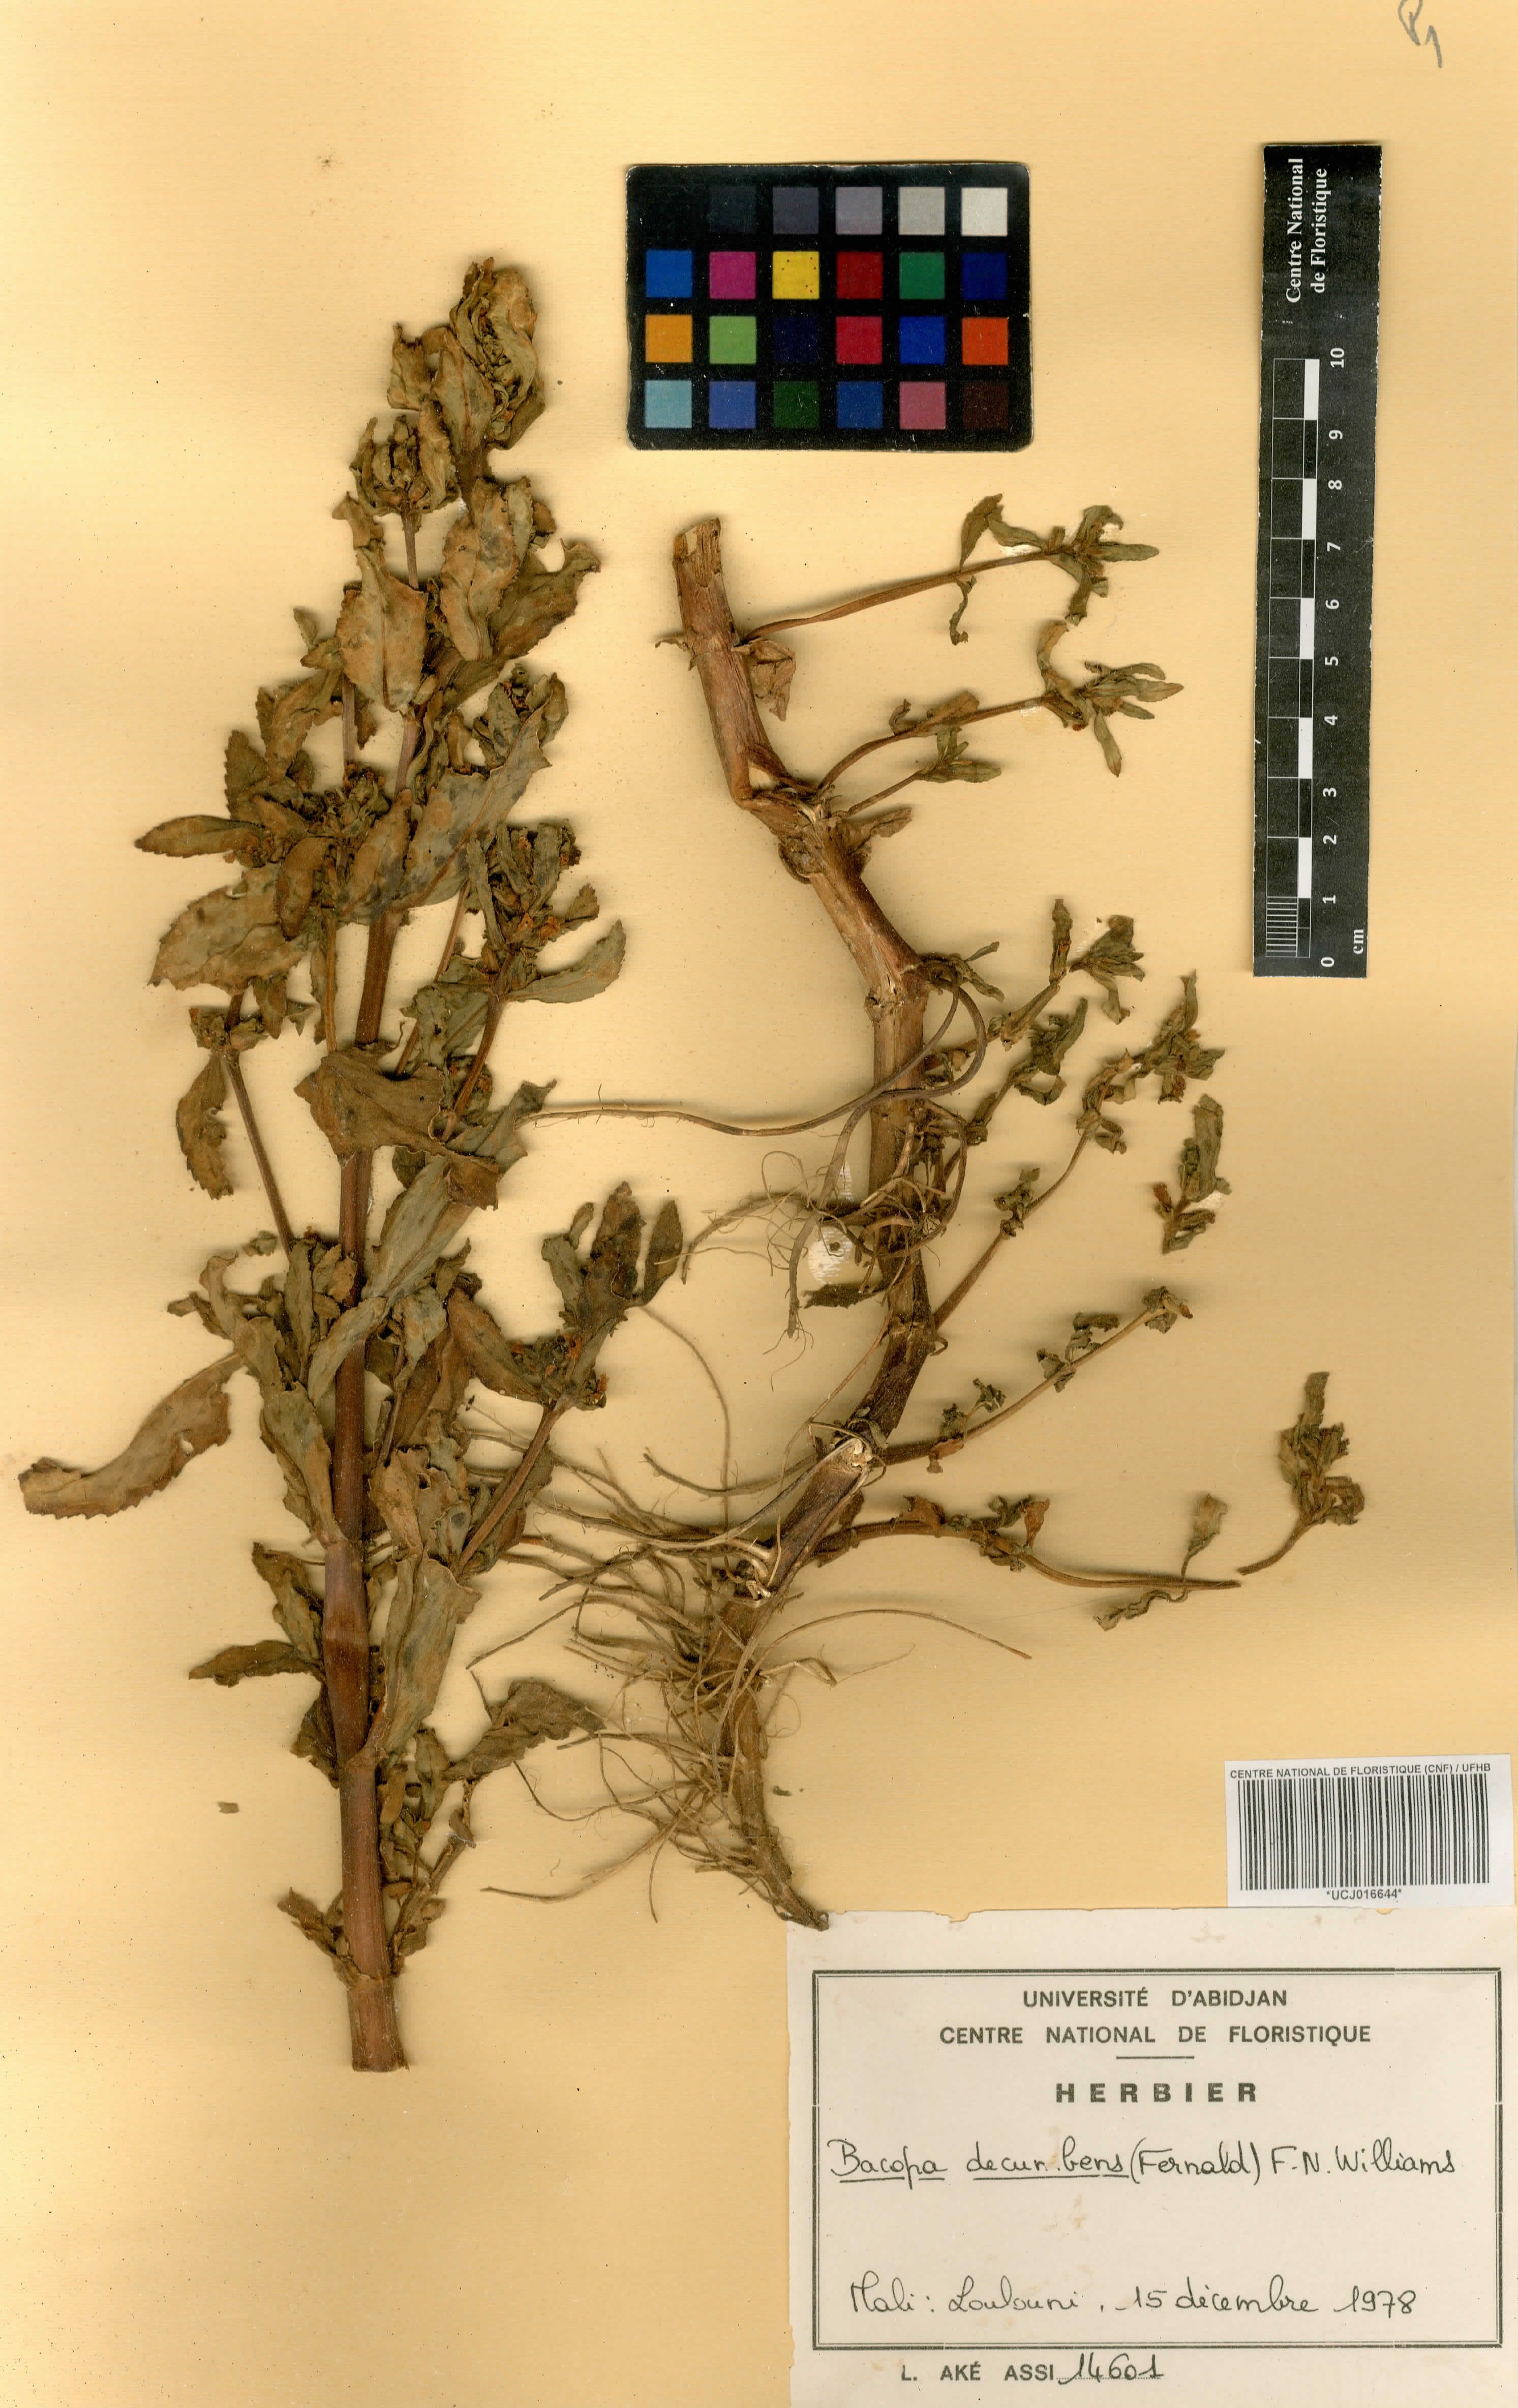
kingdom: Plantae
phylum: Tracheophyta
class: Magnoliopsida
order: Lamiales
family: Plantaginaceae
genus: Bacopa
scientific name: Bacopa decumbens
